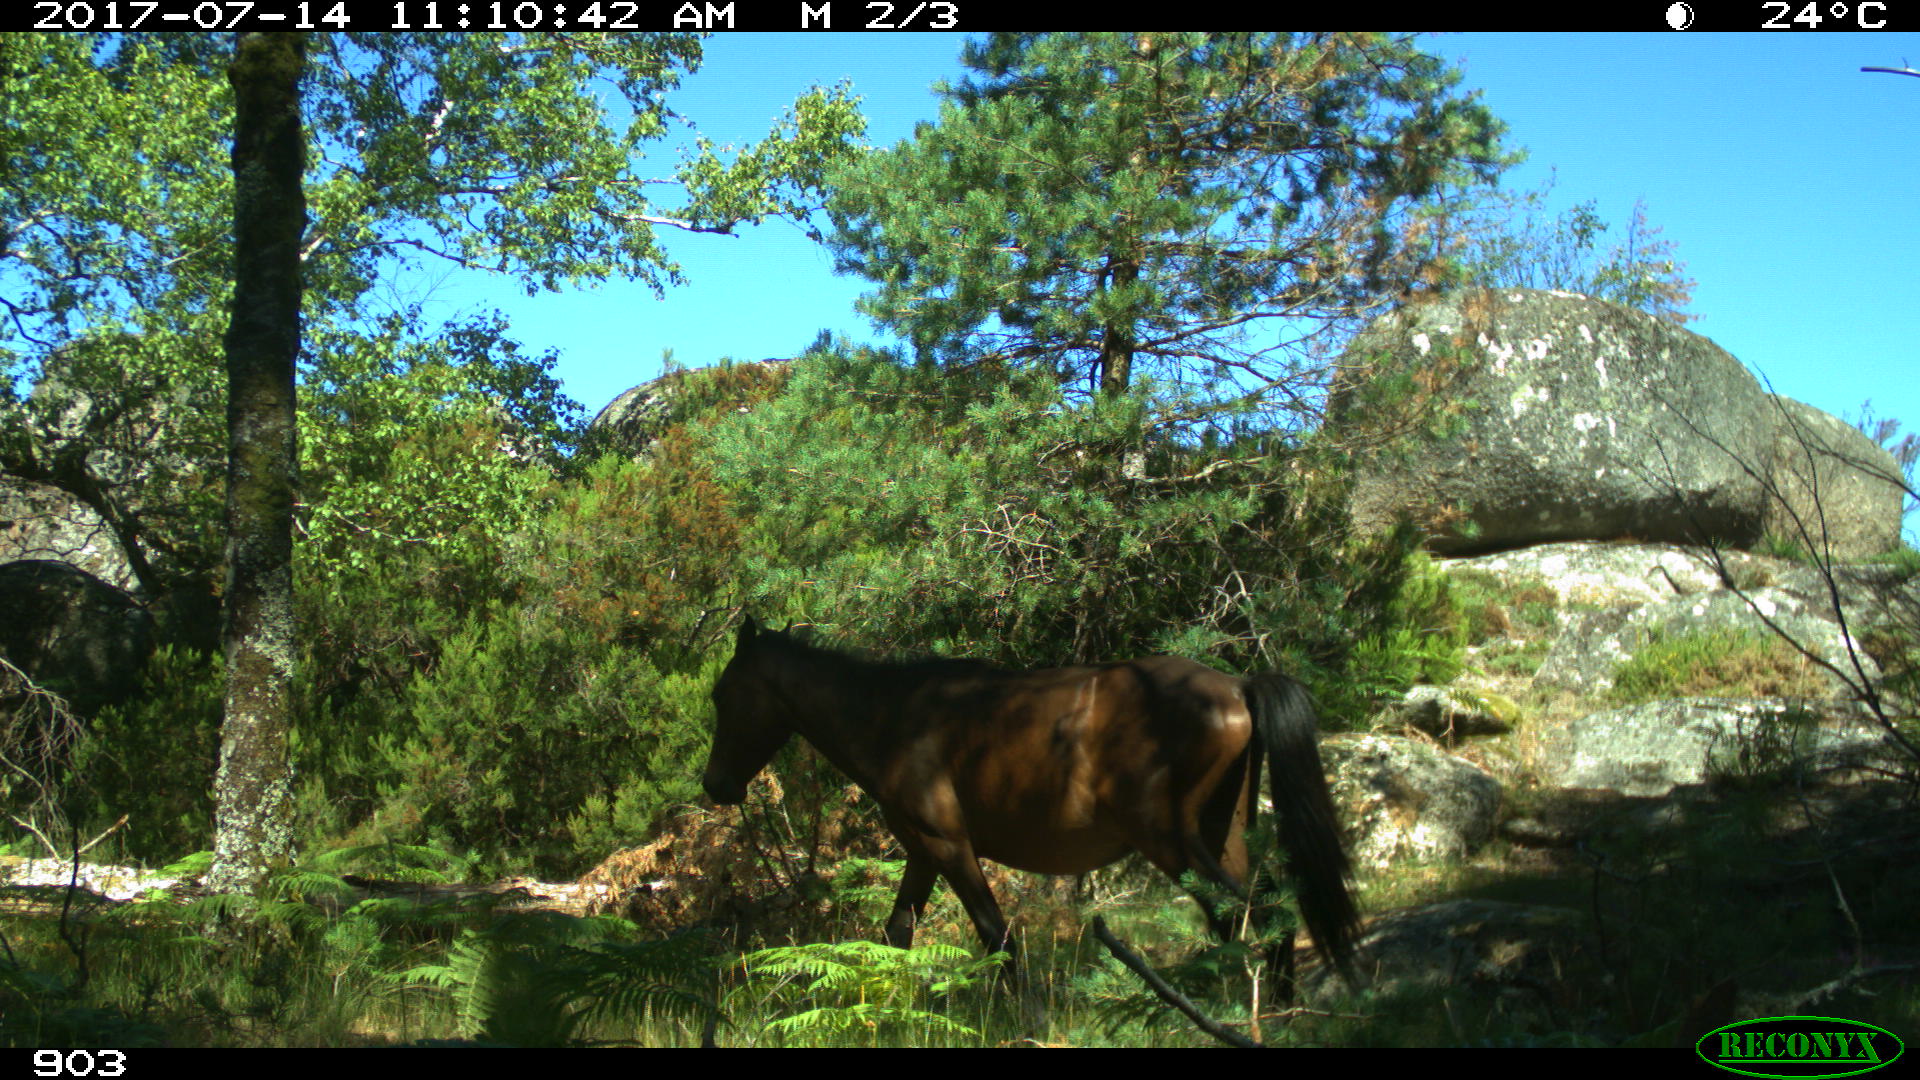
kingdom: Animalia
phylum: Chordata
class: Mammalia
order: Perissodactyla
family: Equidae
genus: Equus
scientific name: Equus caballus
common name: Horse
